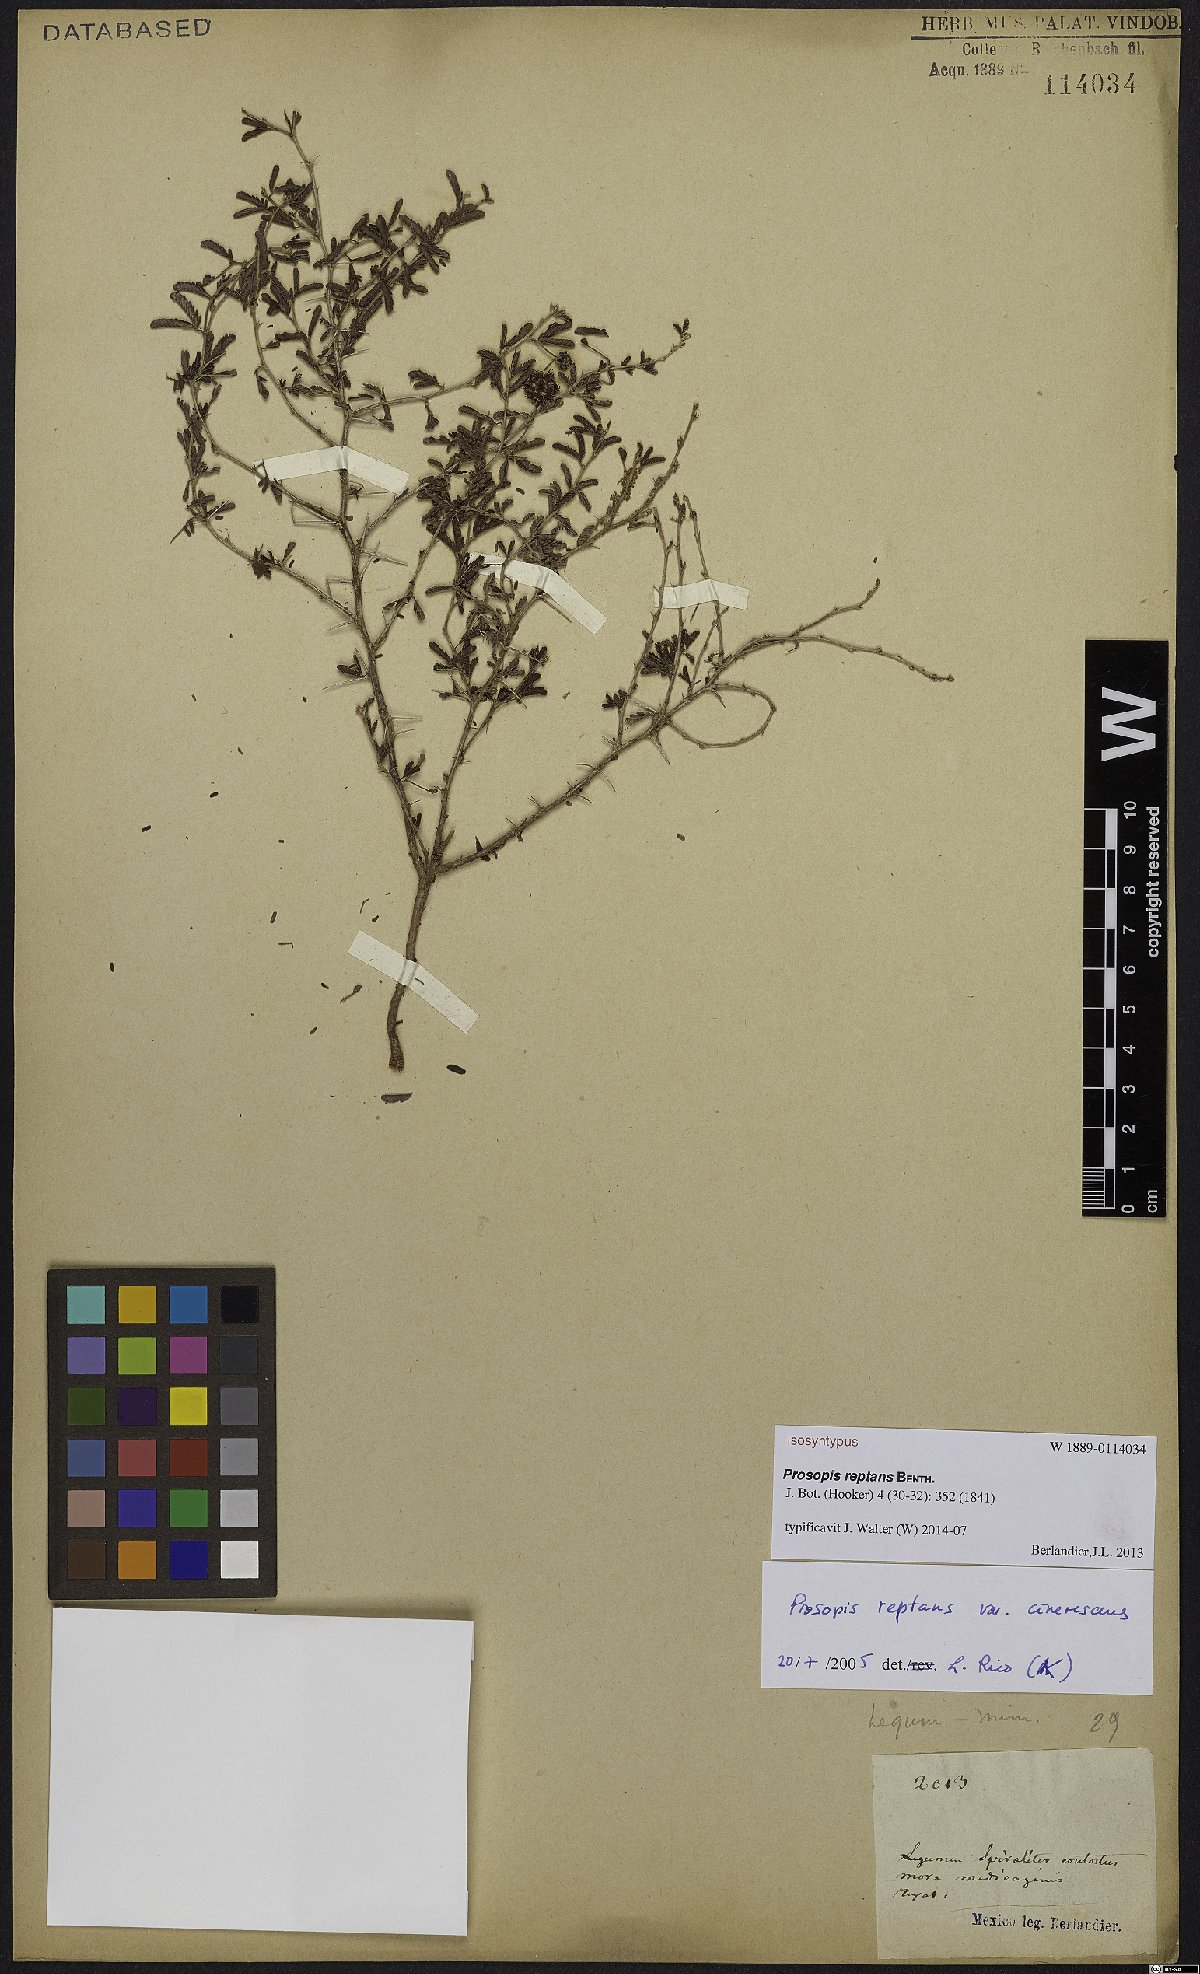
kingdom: Plantae
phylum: Tracheophyta
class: Magnoliopsida
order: Fabales
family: Fabaceae
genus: Prosopis
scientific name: Prosopis reptans
